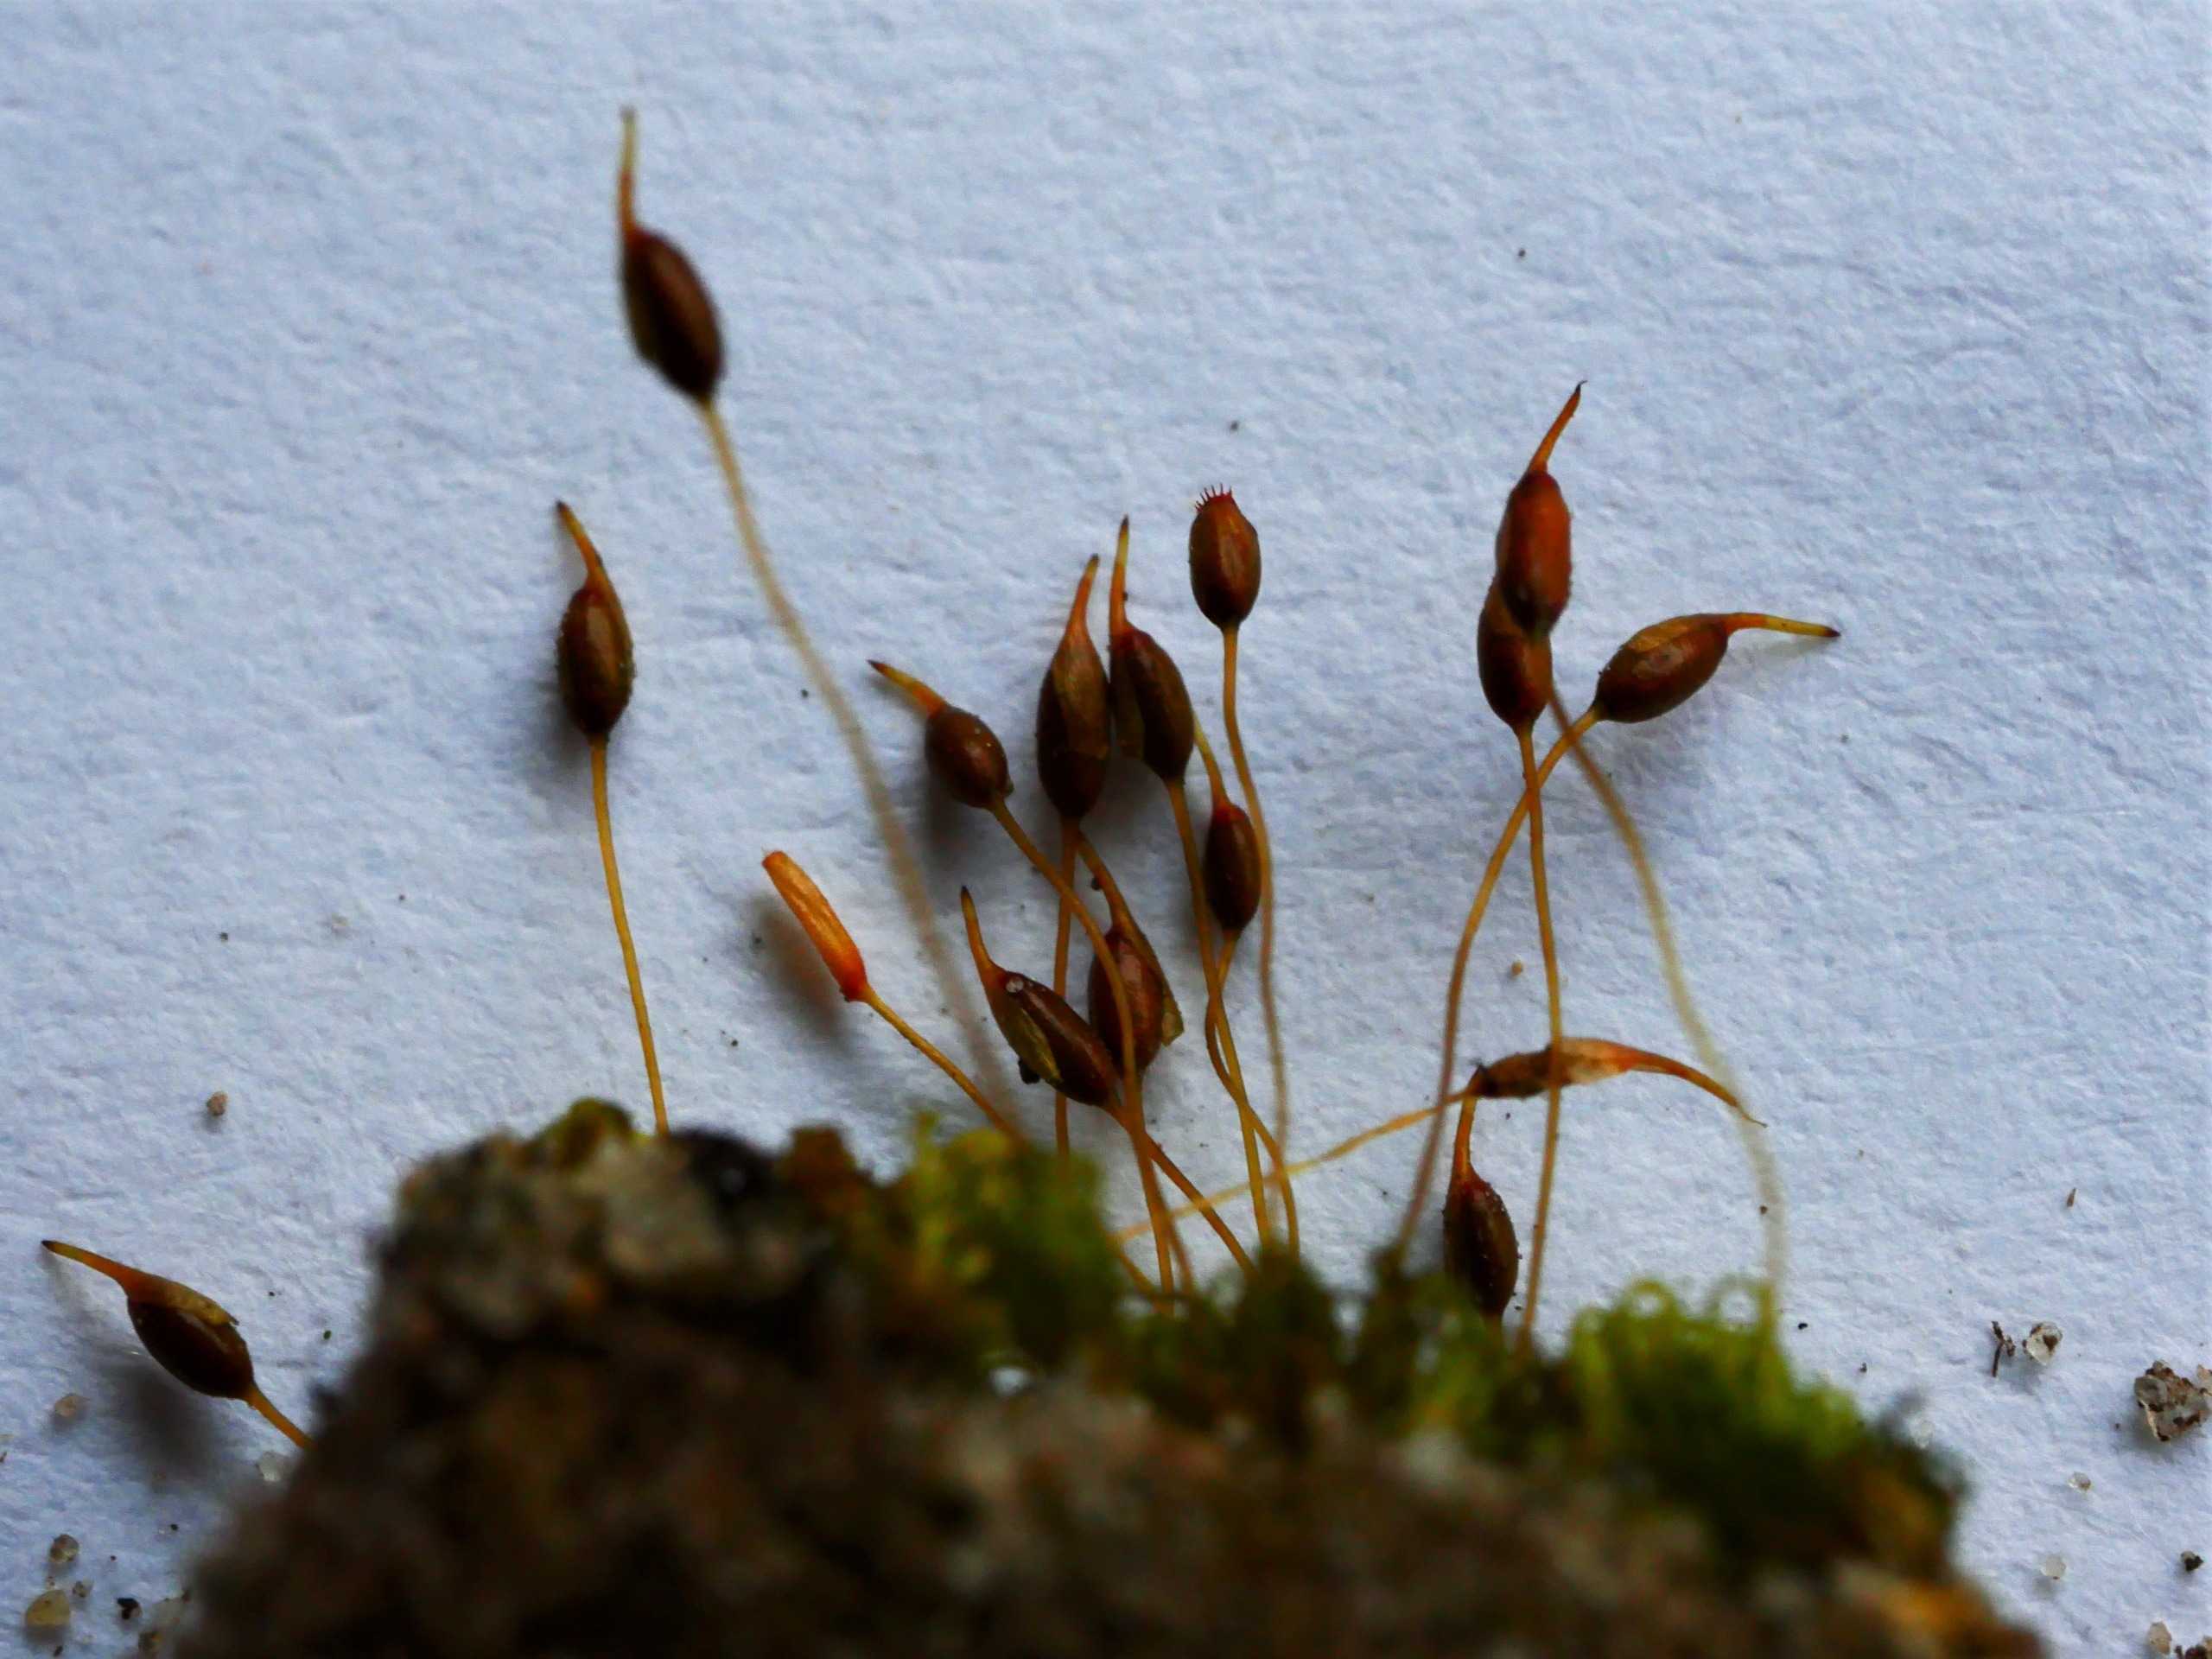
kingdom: Plantae
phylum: Bryophyta
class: Bryopsida
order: Pottiales
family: Pottiaceae
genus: Weissia
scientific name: Weissia controversa
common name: Smaltandet krusmos
